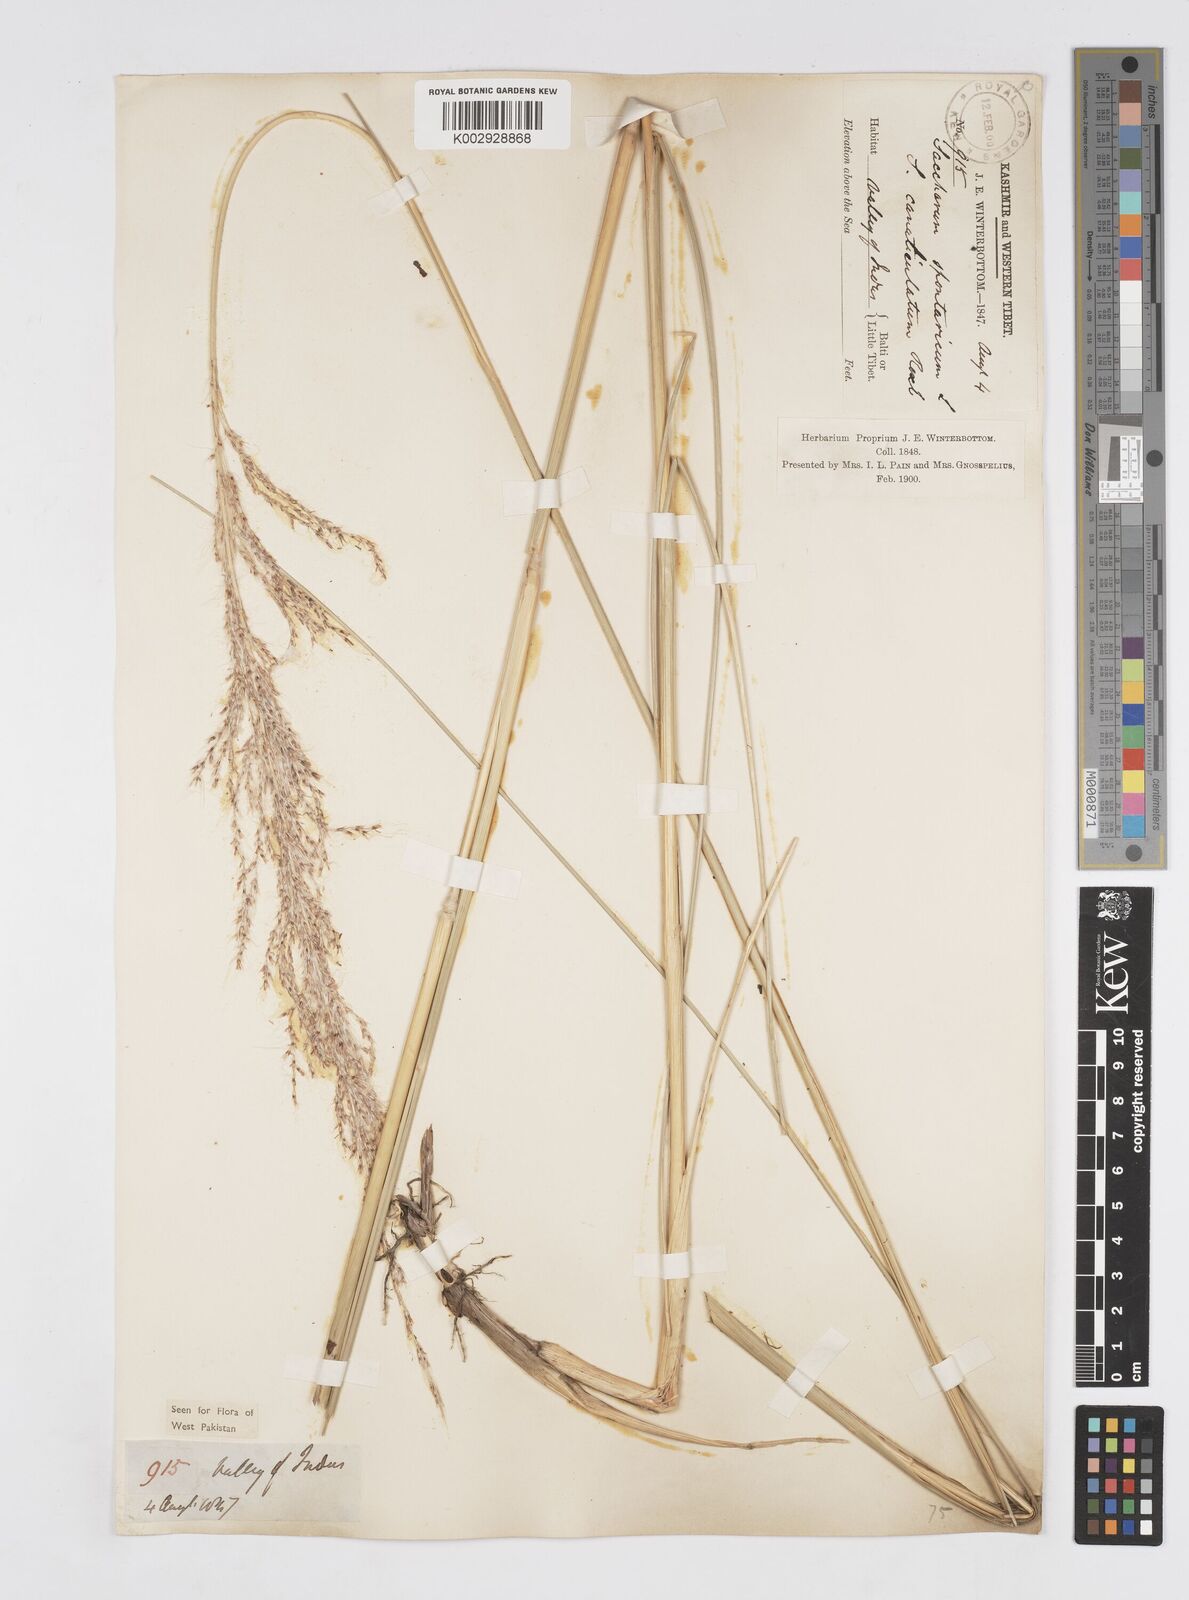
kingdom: Plantae
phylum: Tracheophyta
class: Liliopsida
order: Poales
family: Poaceae
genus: Saccharum
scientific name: Saccharum spontaneum
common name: Wild sugarcane
